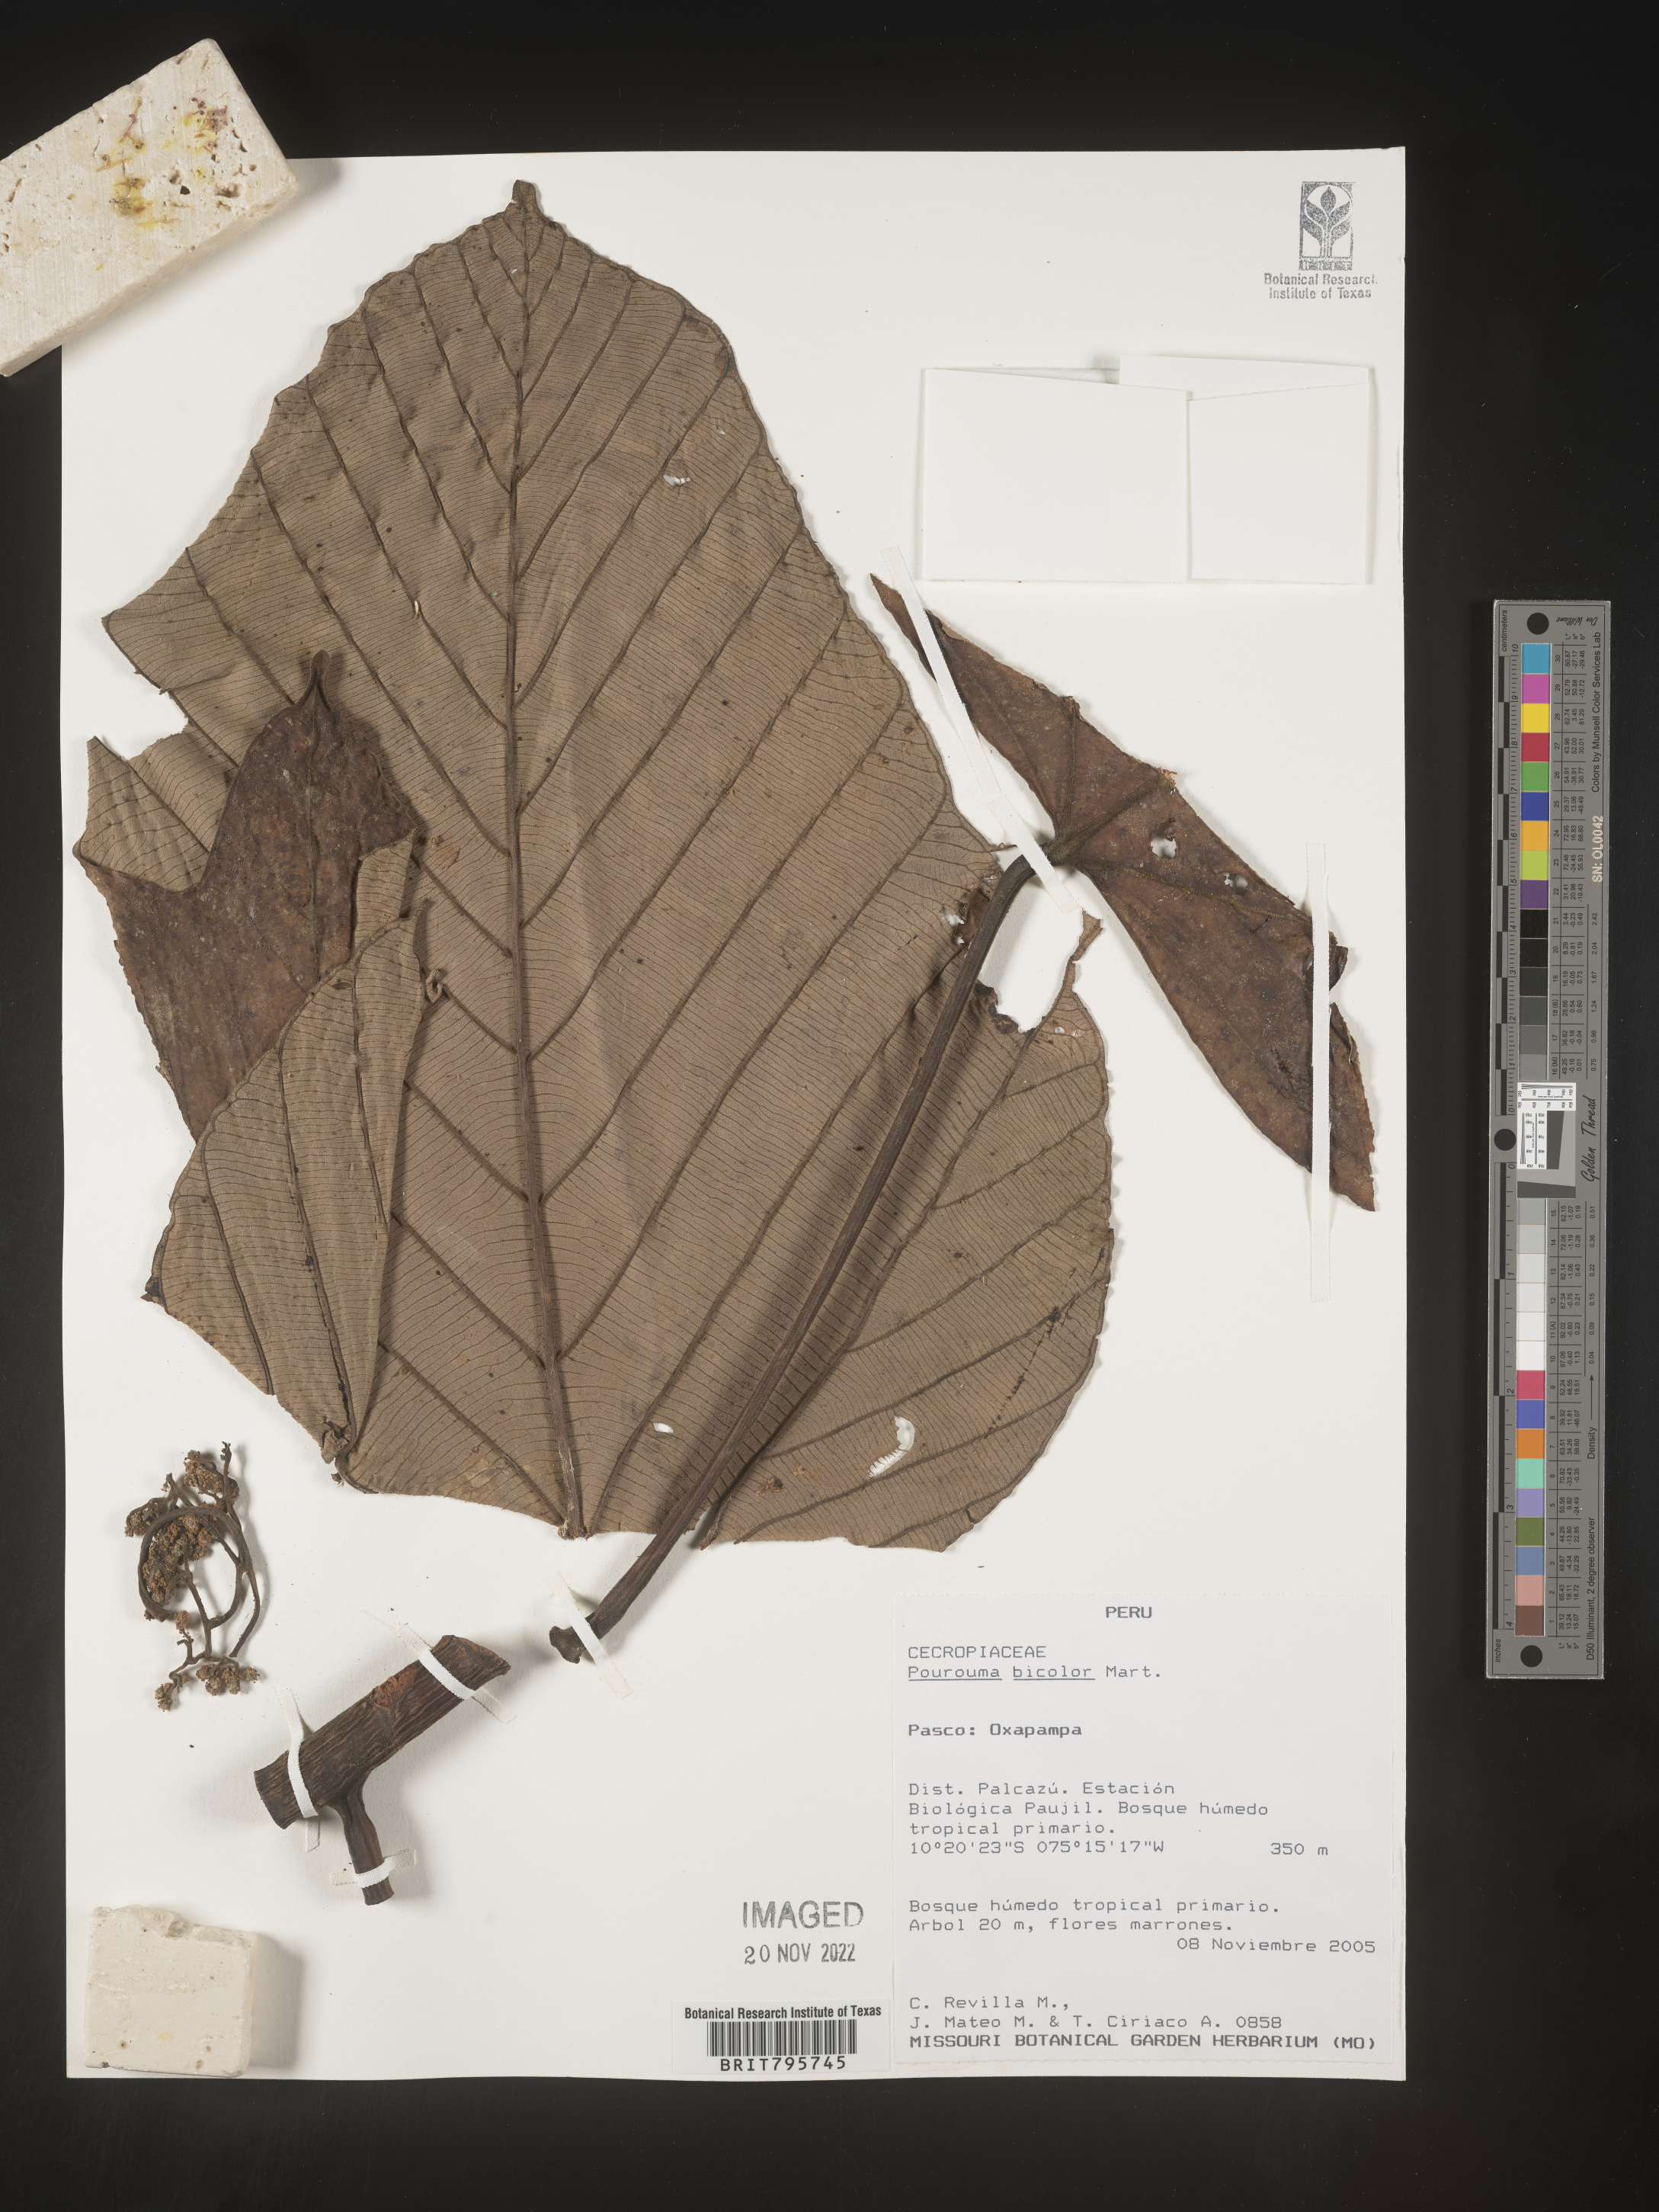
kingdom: Plantae
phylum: Tracheophyta
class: Magnoliopsida
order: Rosales
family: Urticaceae
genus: Pourouma
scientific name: Pourouma
